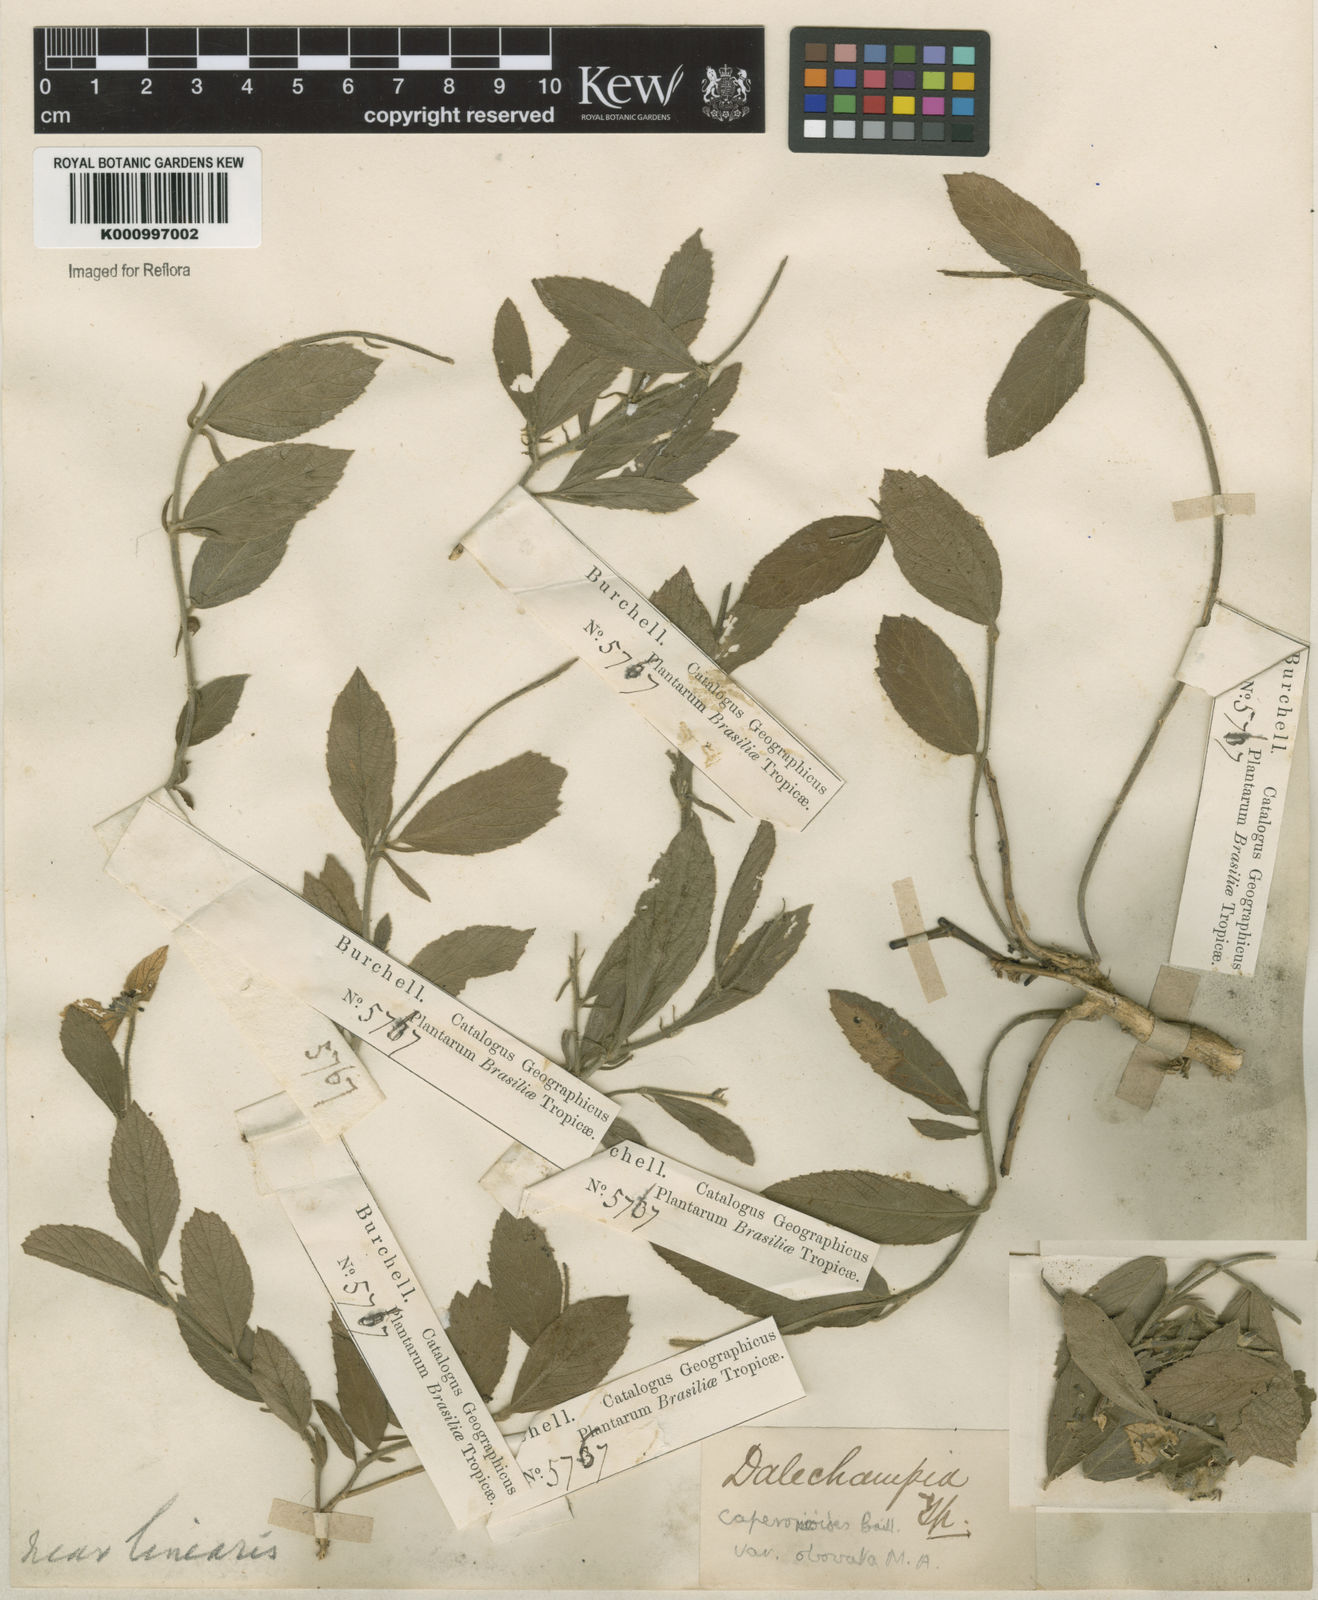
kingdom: Plantae
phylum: Tracheophyta
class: Magnoliopsida
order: Malpighiales
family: Euphorbiaceae
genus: Dalechampia
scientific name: Dalechampia caperonioides
